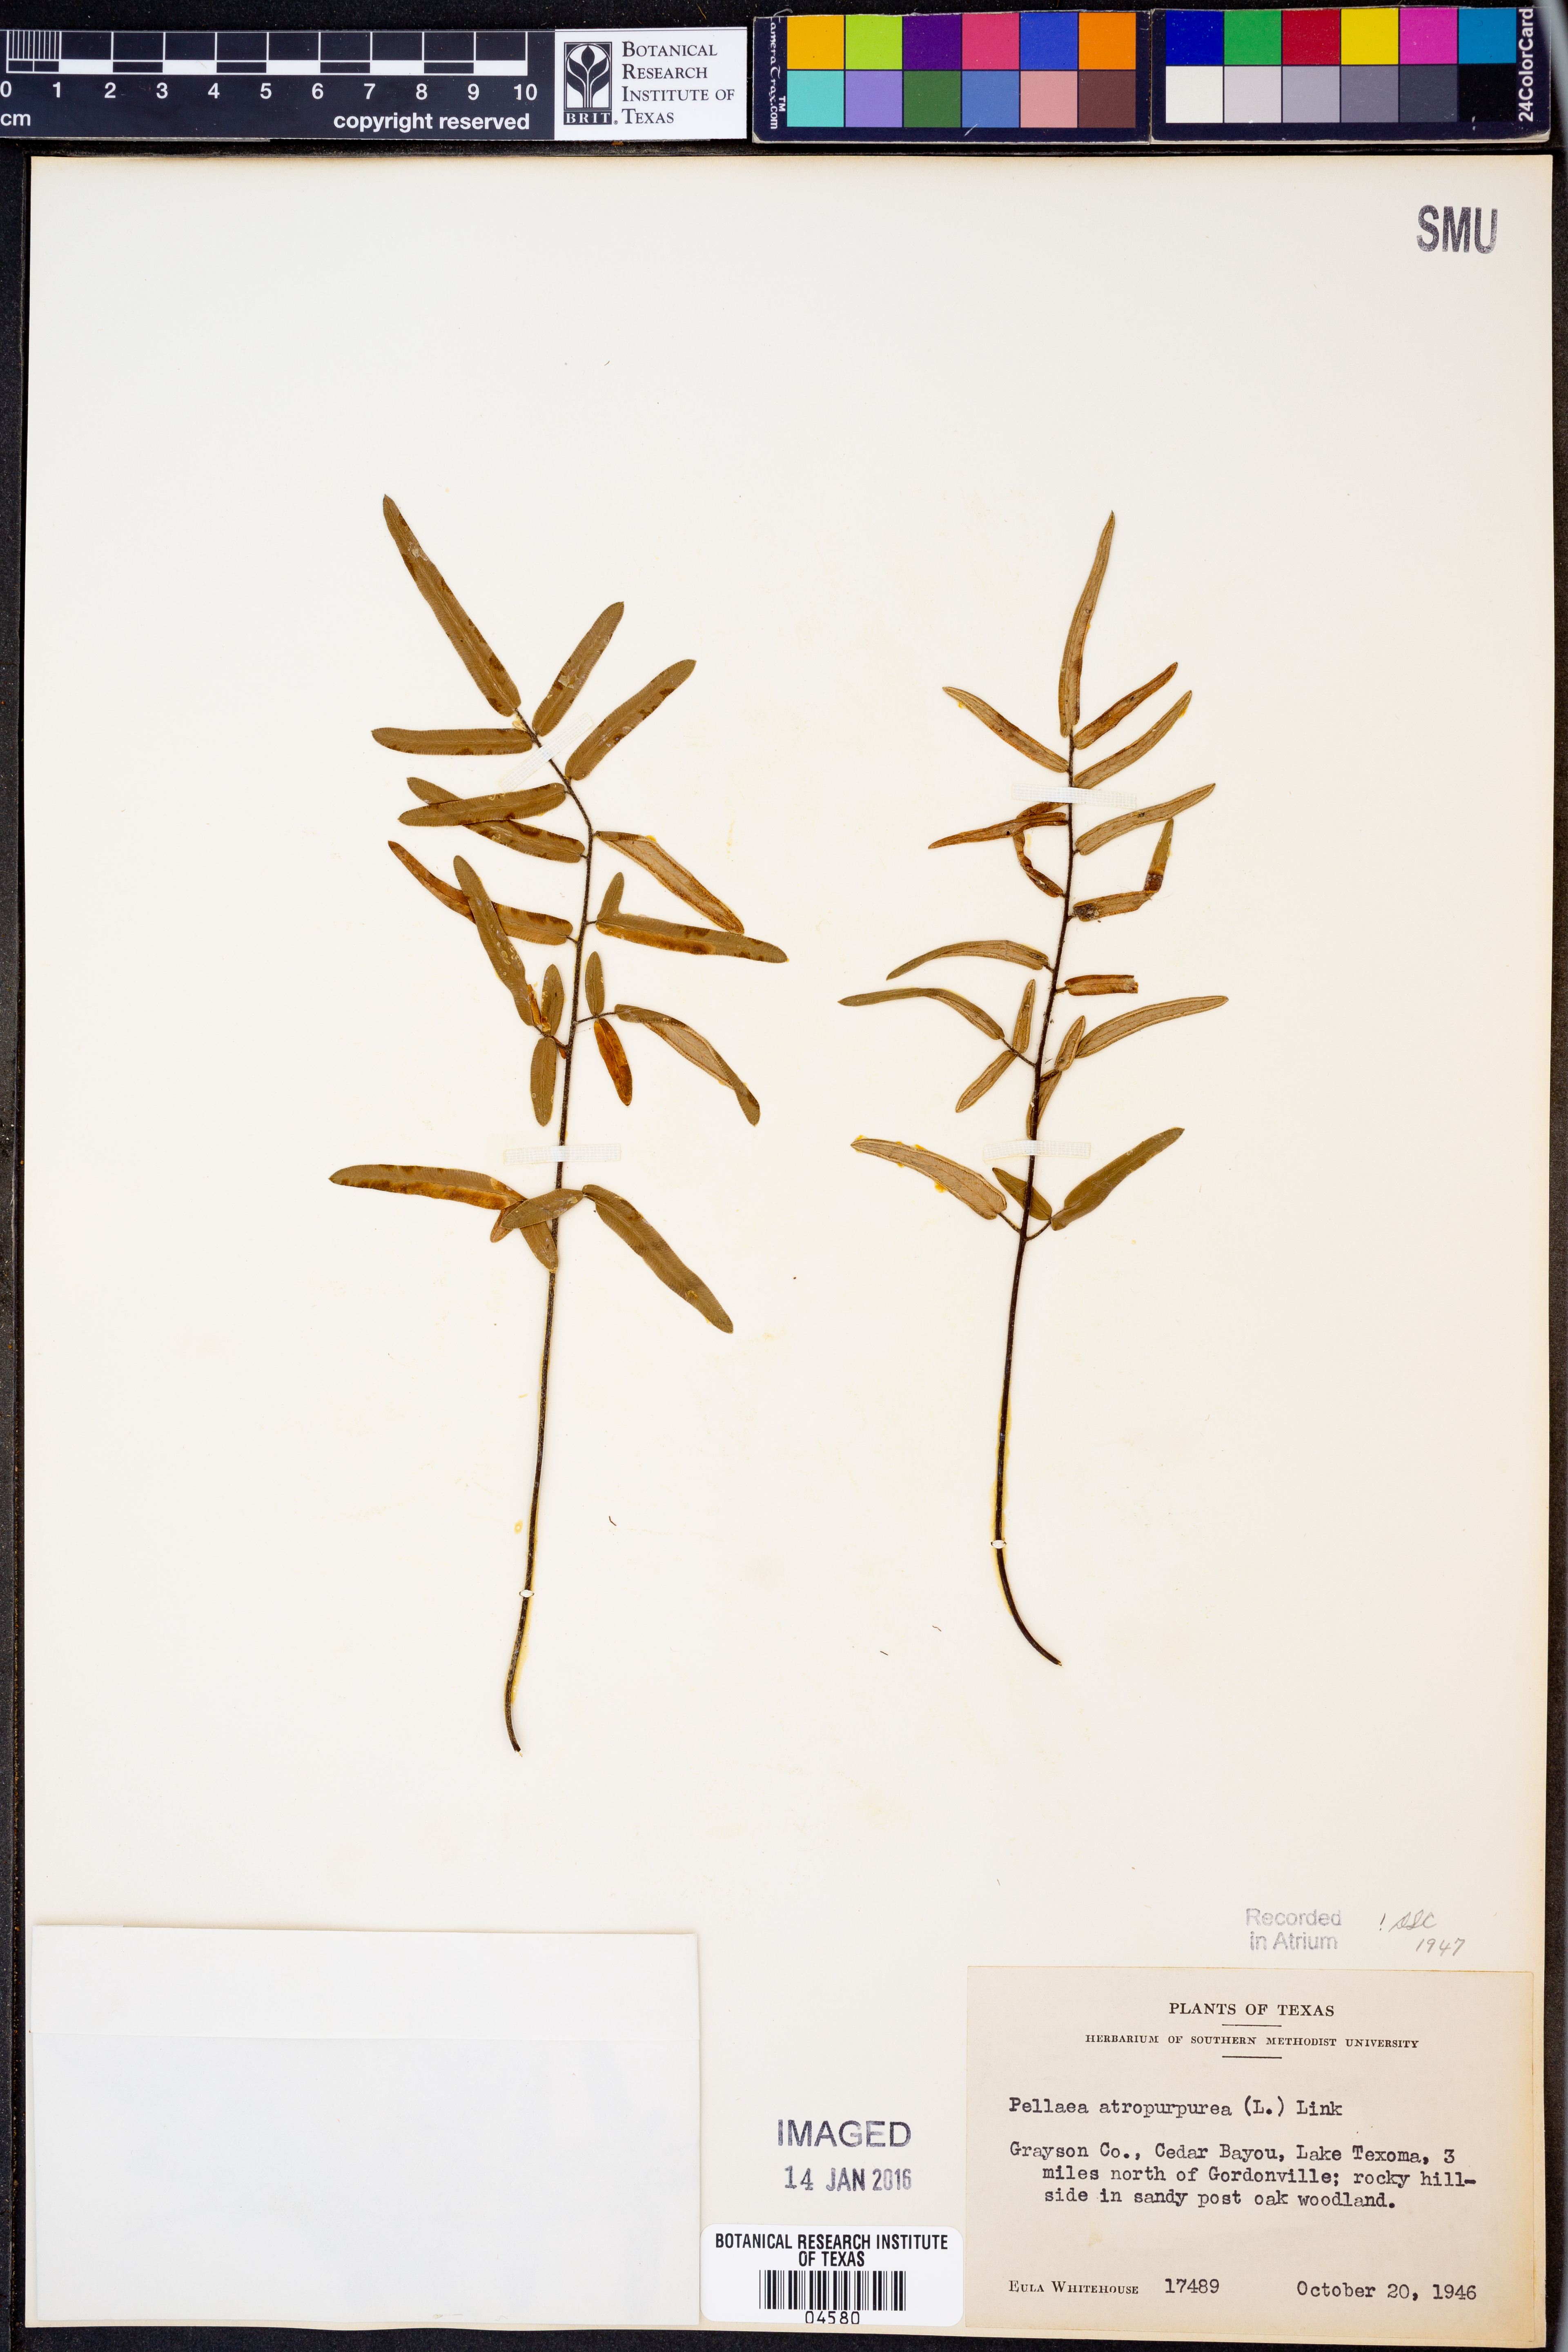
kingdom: Plantae
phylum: Tracheophyta
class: Polypodiopsida
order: Polypodiales
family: Pteridaceae
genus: Pellaea
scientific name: Pellaea atropurpurea
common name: Hairy cliffbrake
